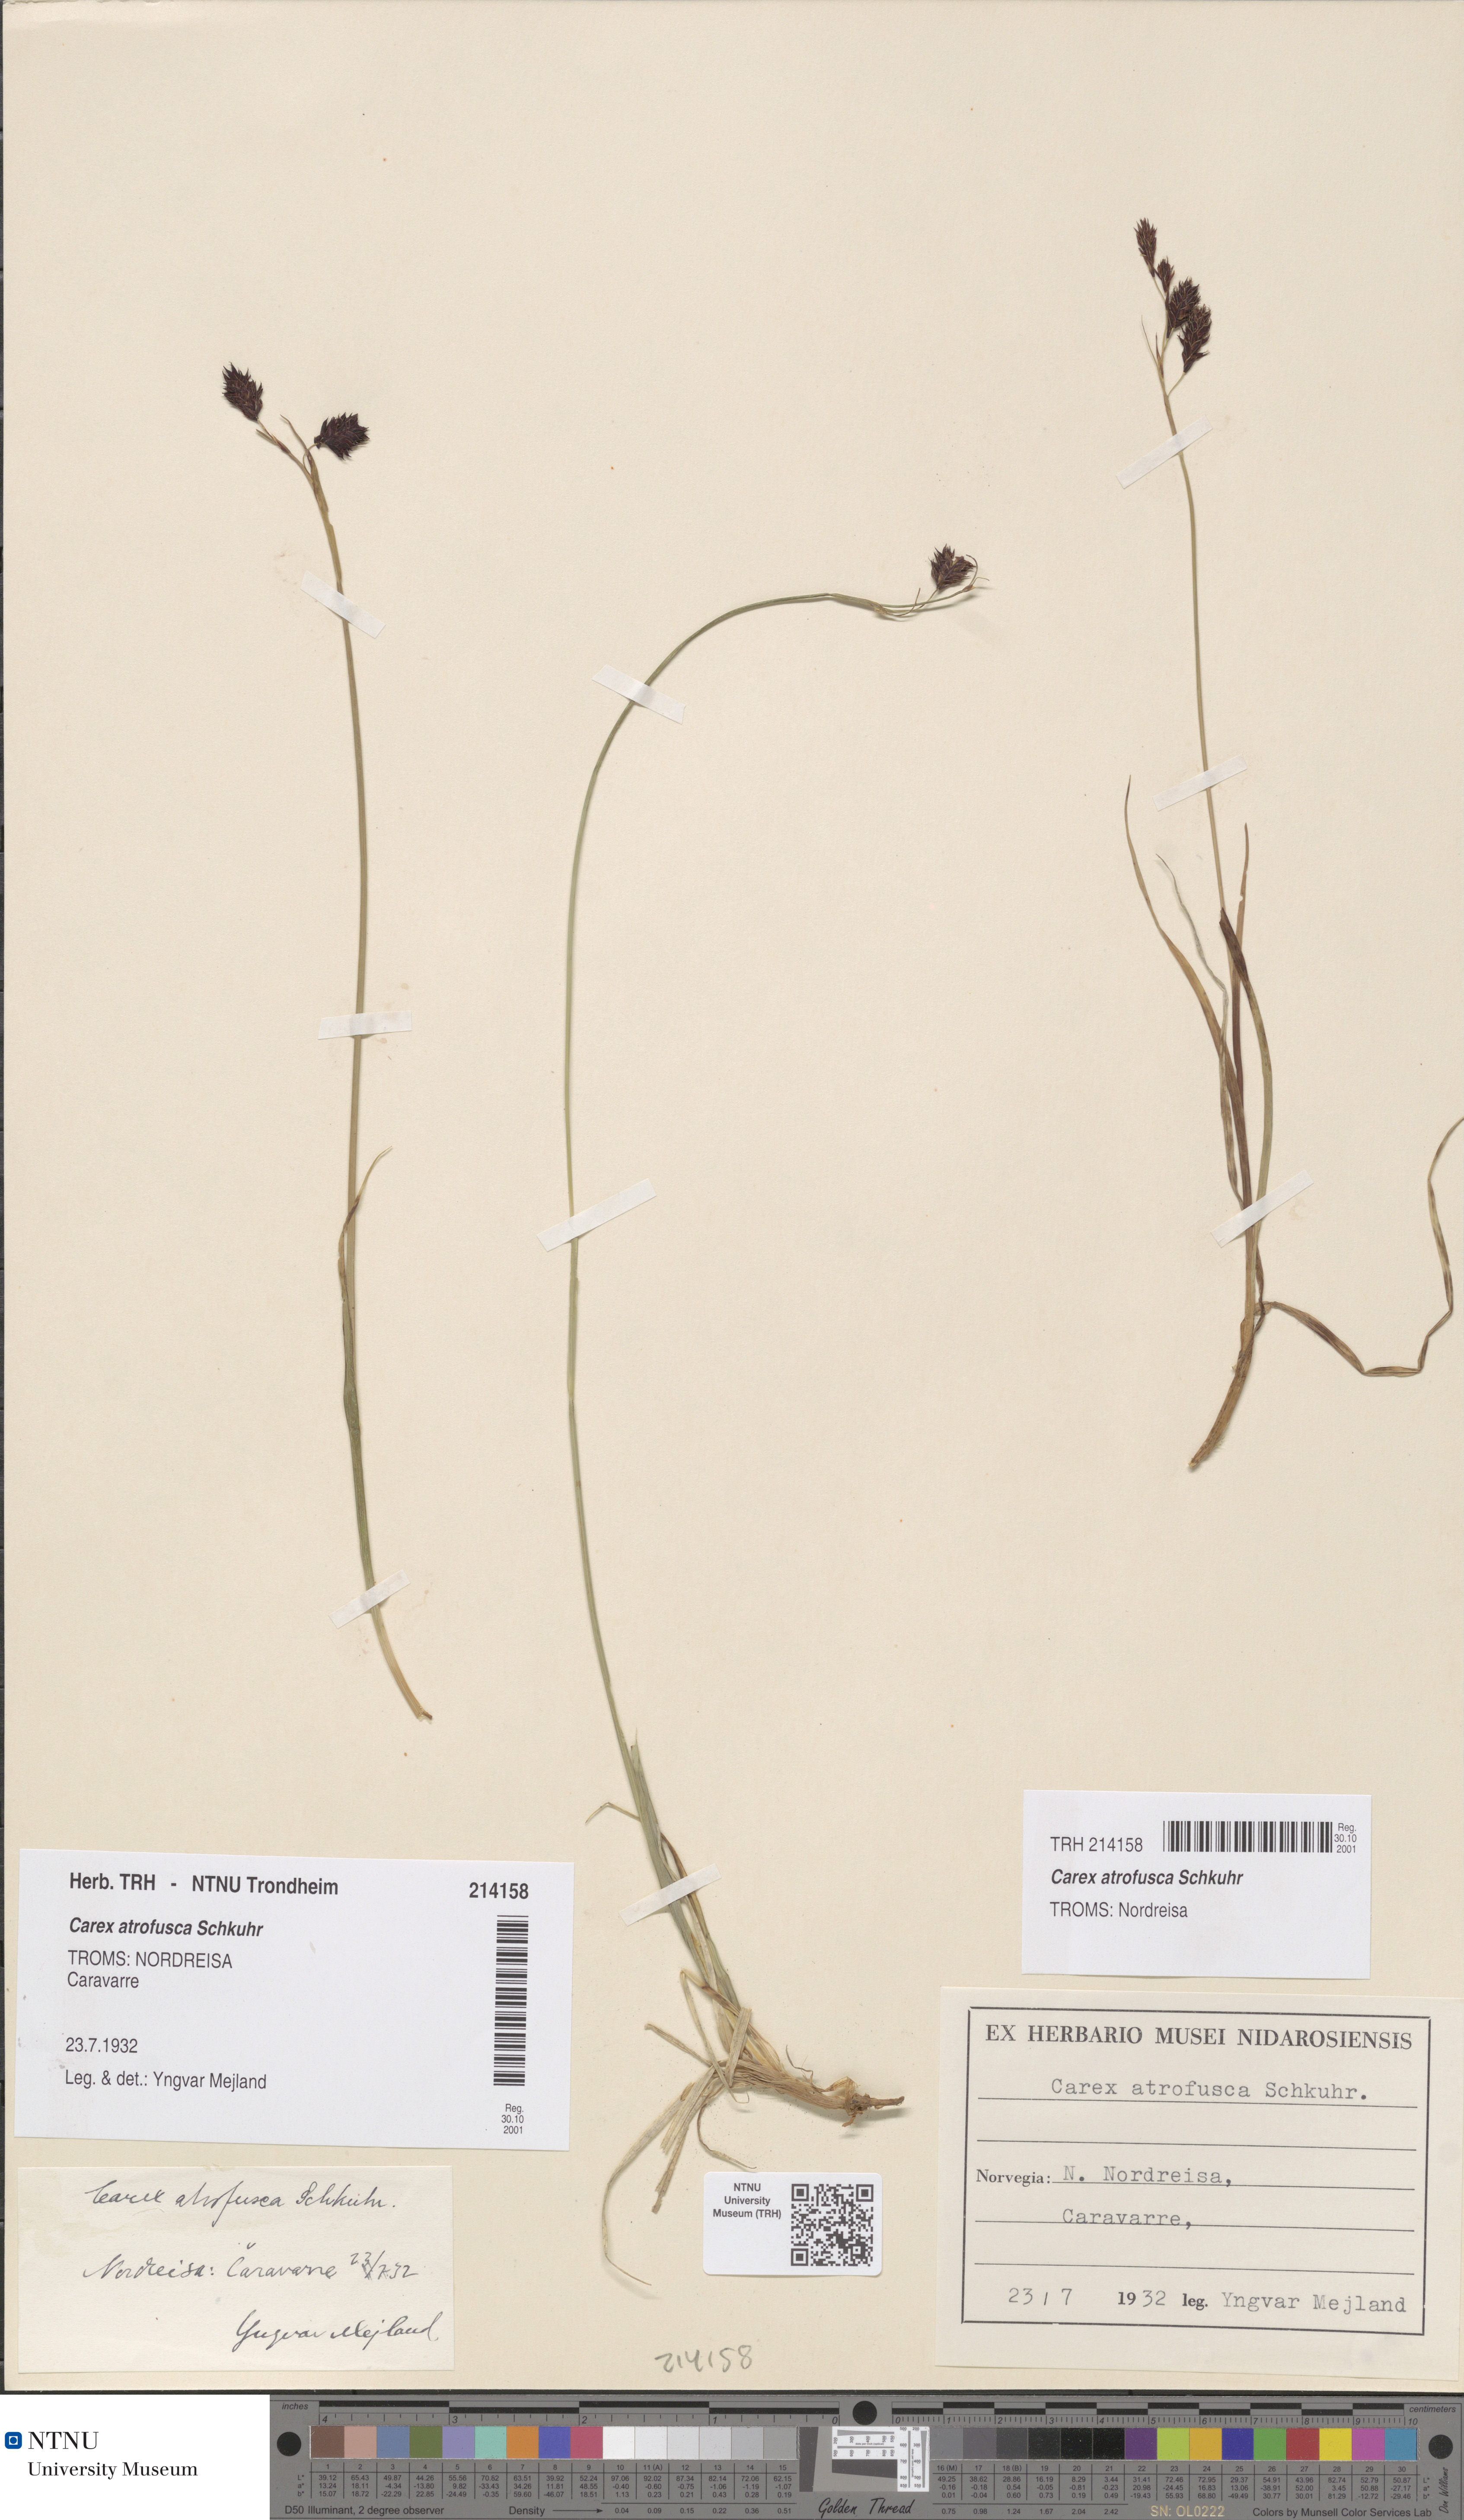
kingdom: Plantae
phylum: Tracheophyta
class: Liliopsida
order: Poales
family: Cyperaceae
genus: Carex
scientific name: Carex atrofusca
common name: Scorched alpine-sedge
